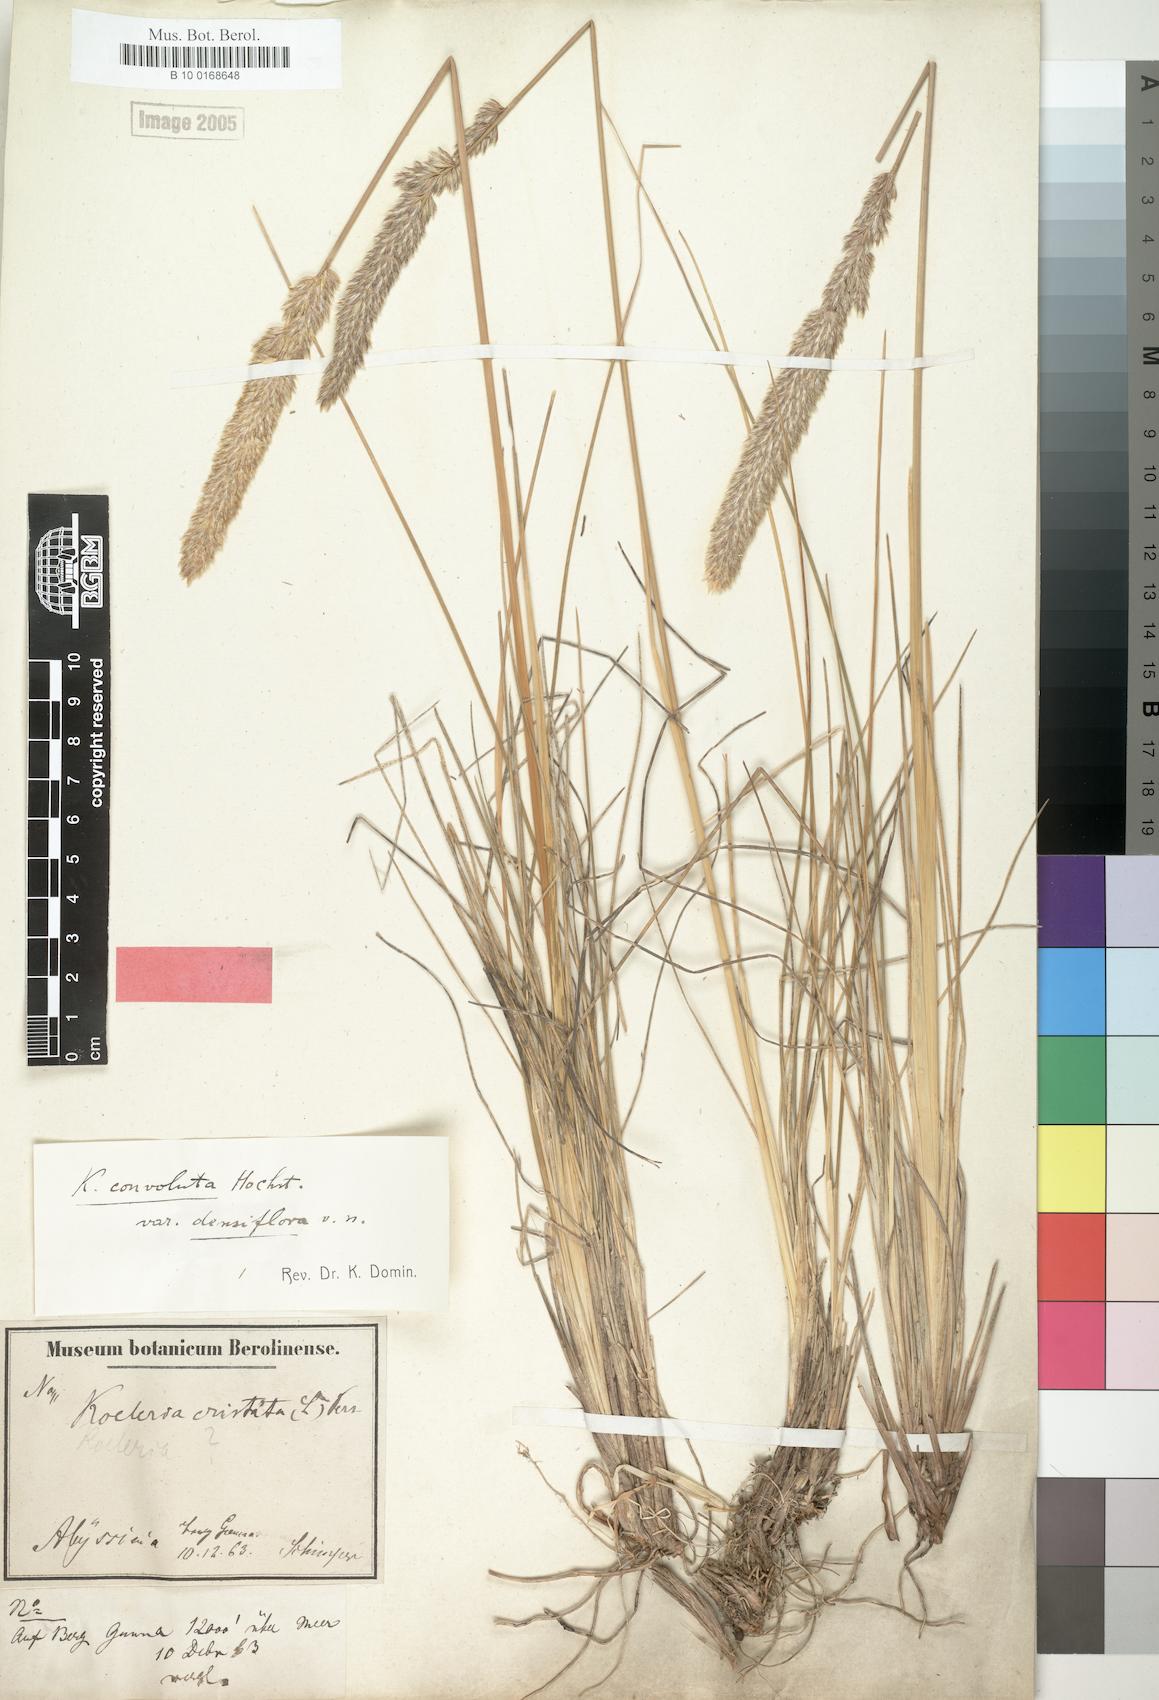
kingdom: Plantae
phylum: Tracheophyta
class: Liliopsida
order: Poales
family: Poaceae
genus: Koeleria
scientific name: Koeleria capensis
